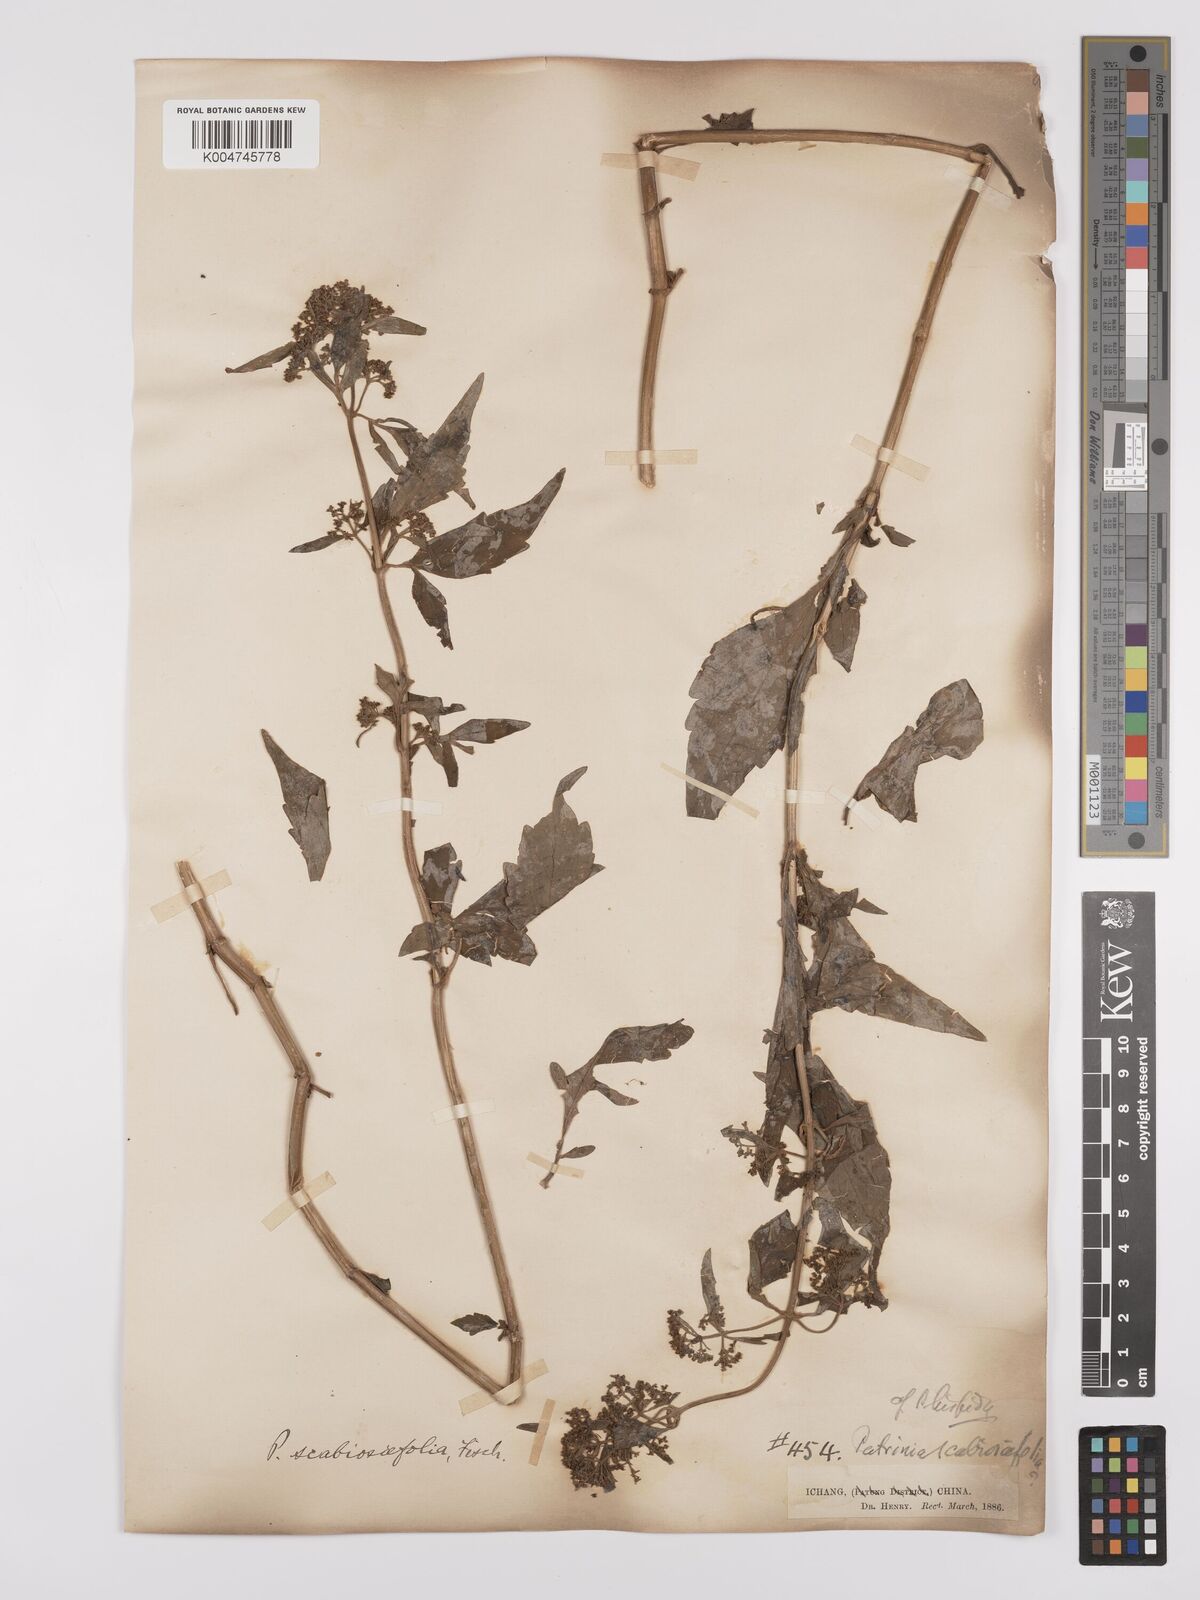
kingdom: Plantae
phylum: Tracheophyta
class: Magnoliopsida
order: Dipsacales
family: Caprifoliaceae
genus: Patrinia
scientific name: Patrinia
